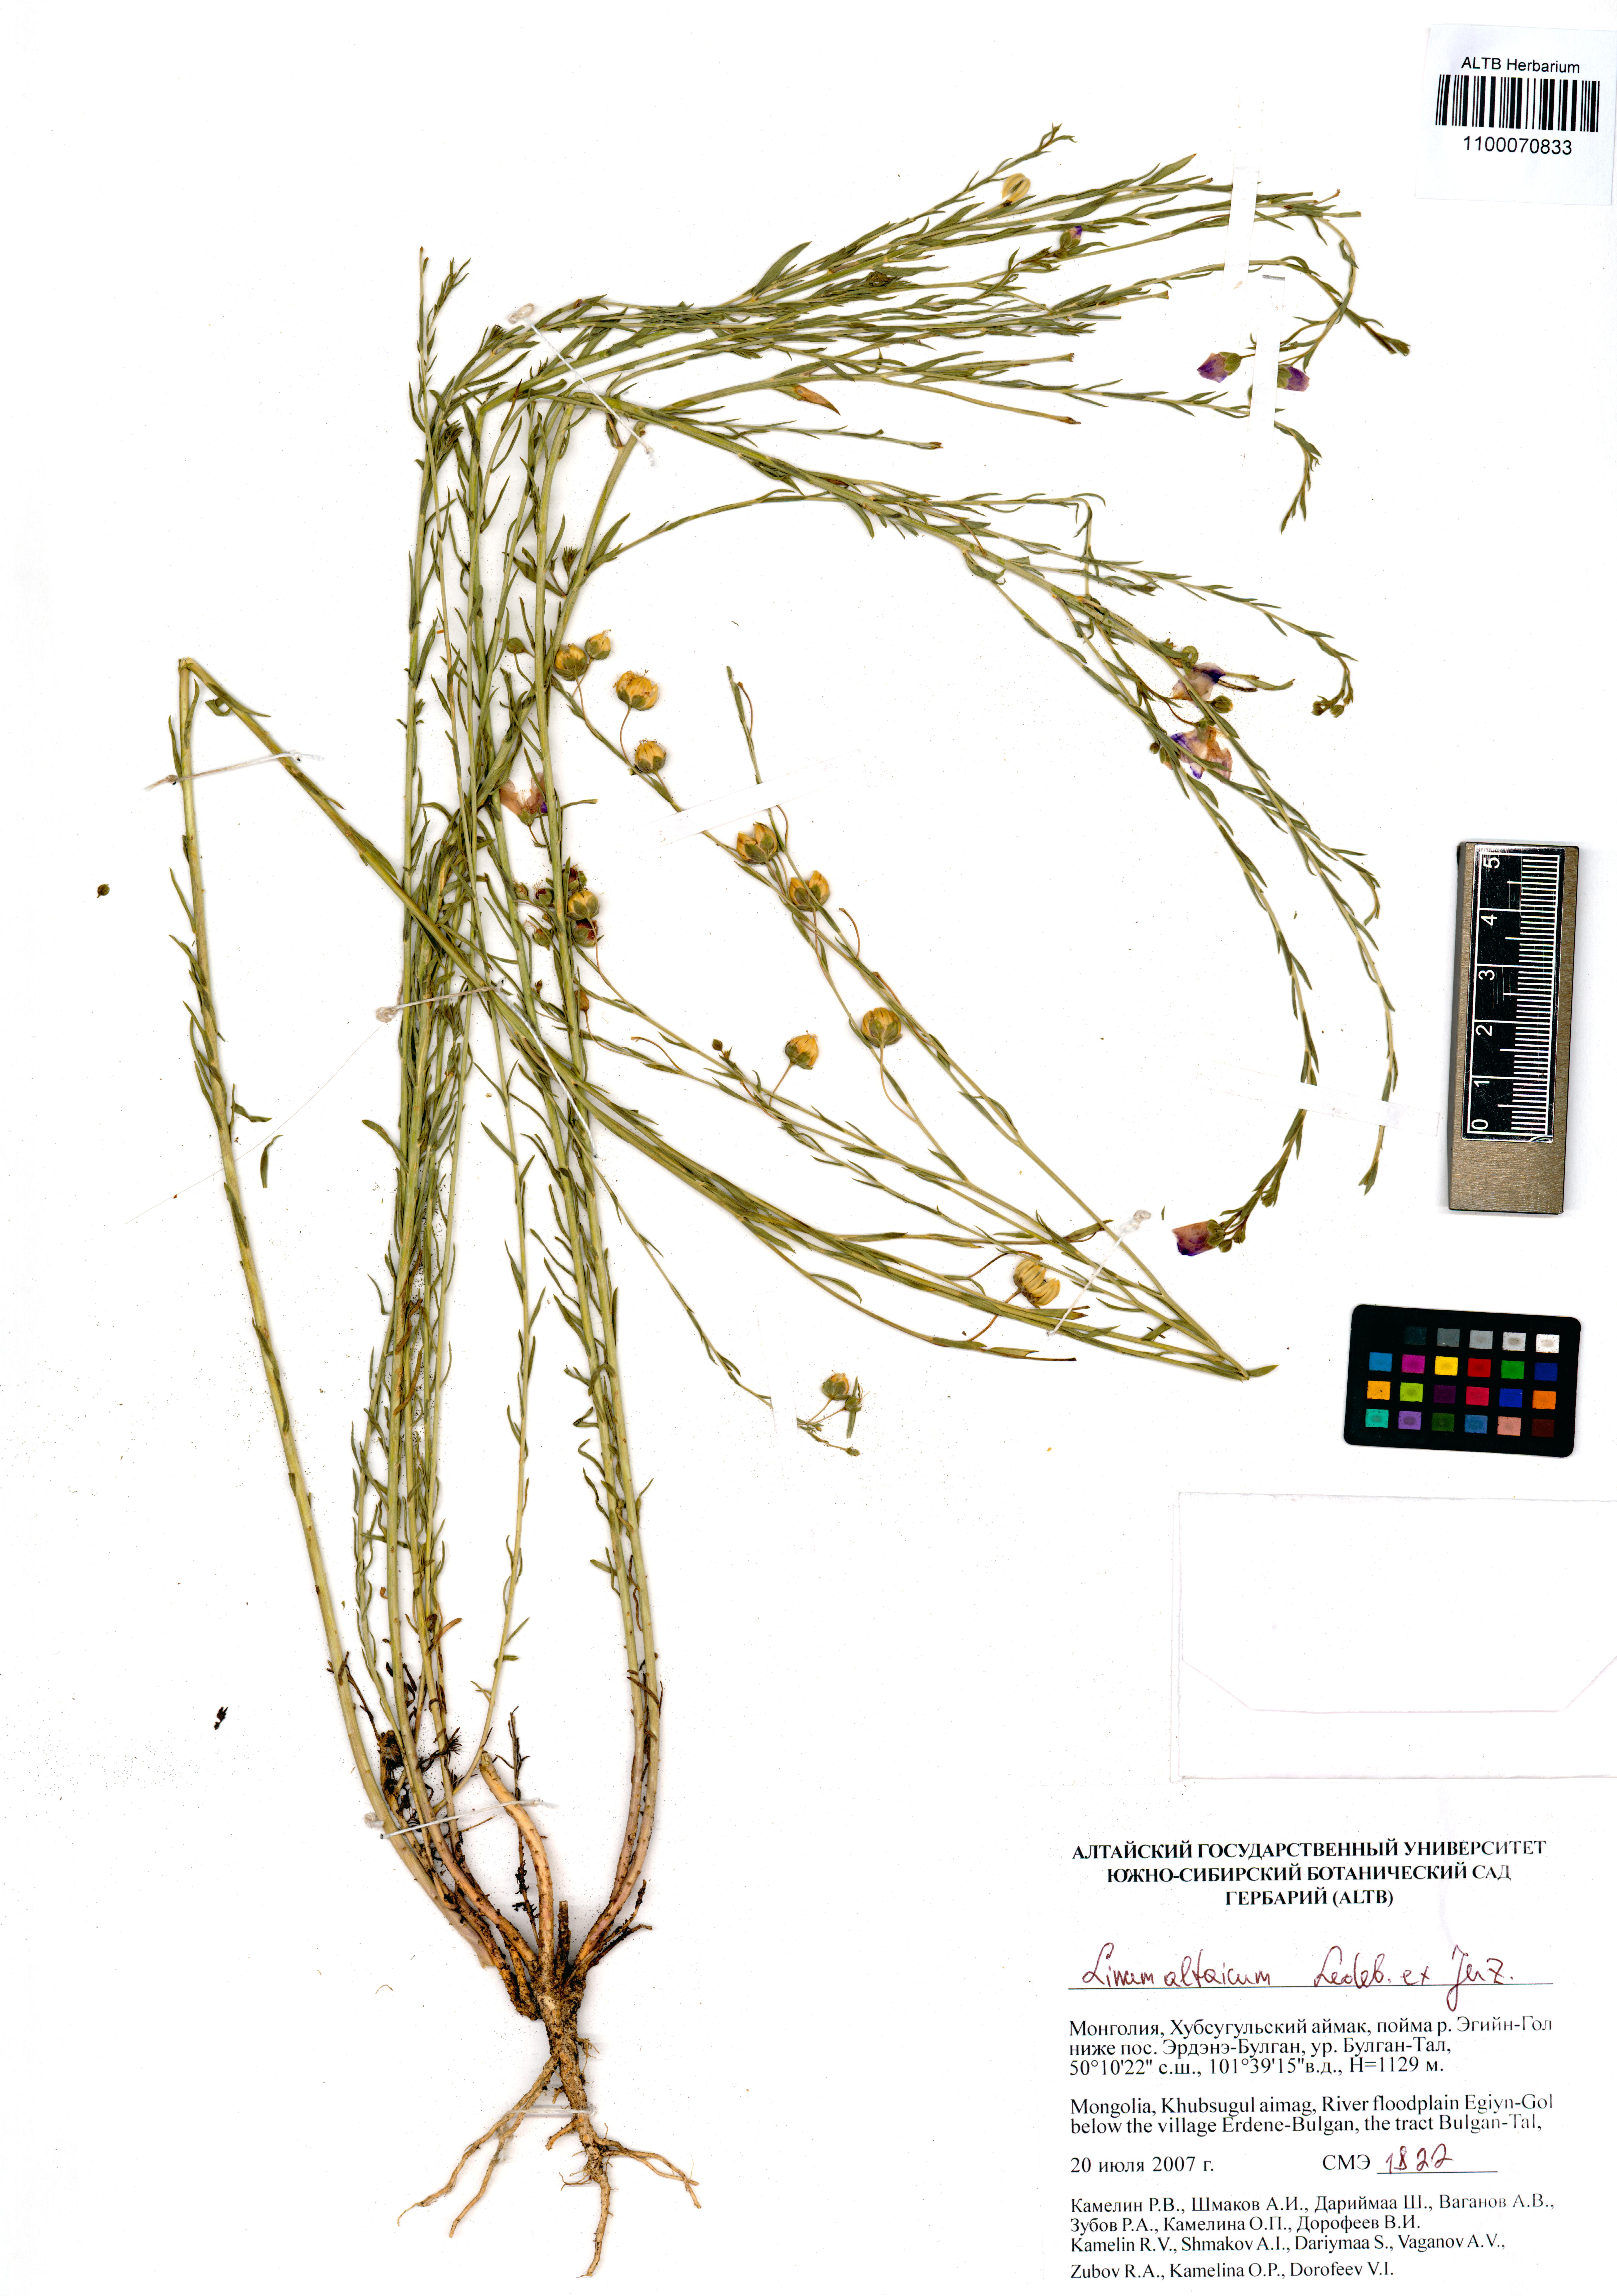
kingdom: Plantae
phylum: Tracheophyta
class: Magnoliopsida
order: Malpighiales
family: Linaceae
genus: Linum
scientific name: Linum altaicum
